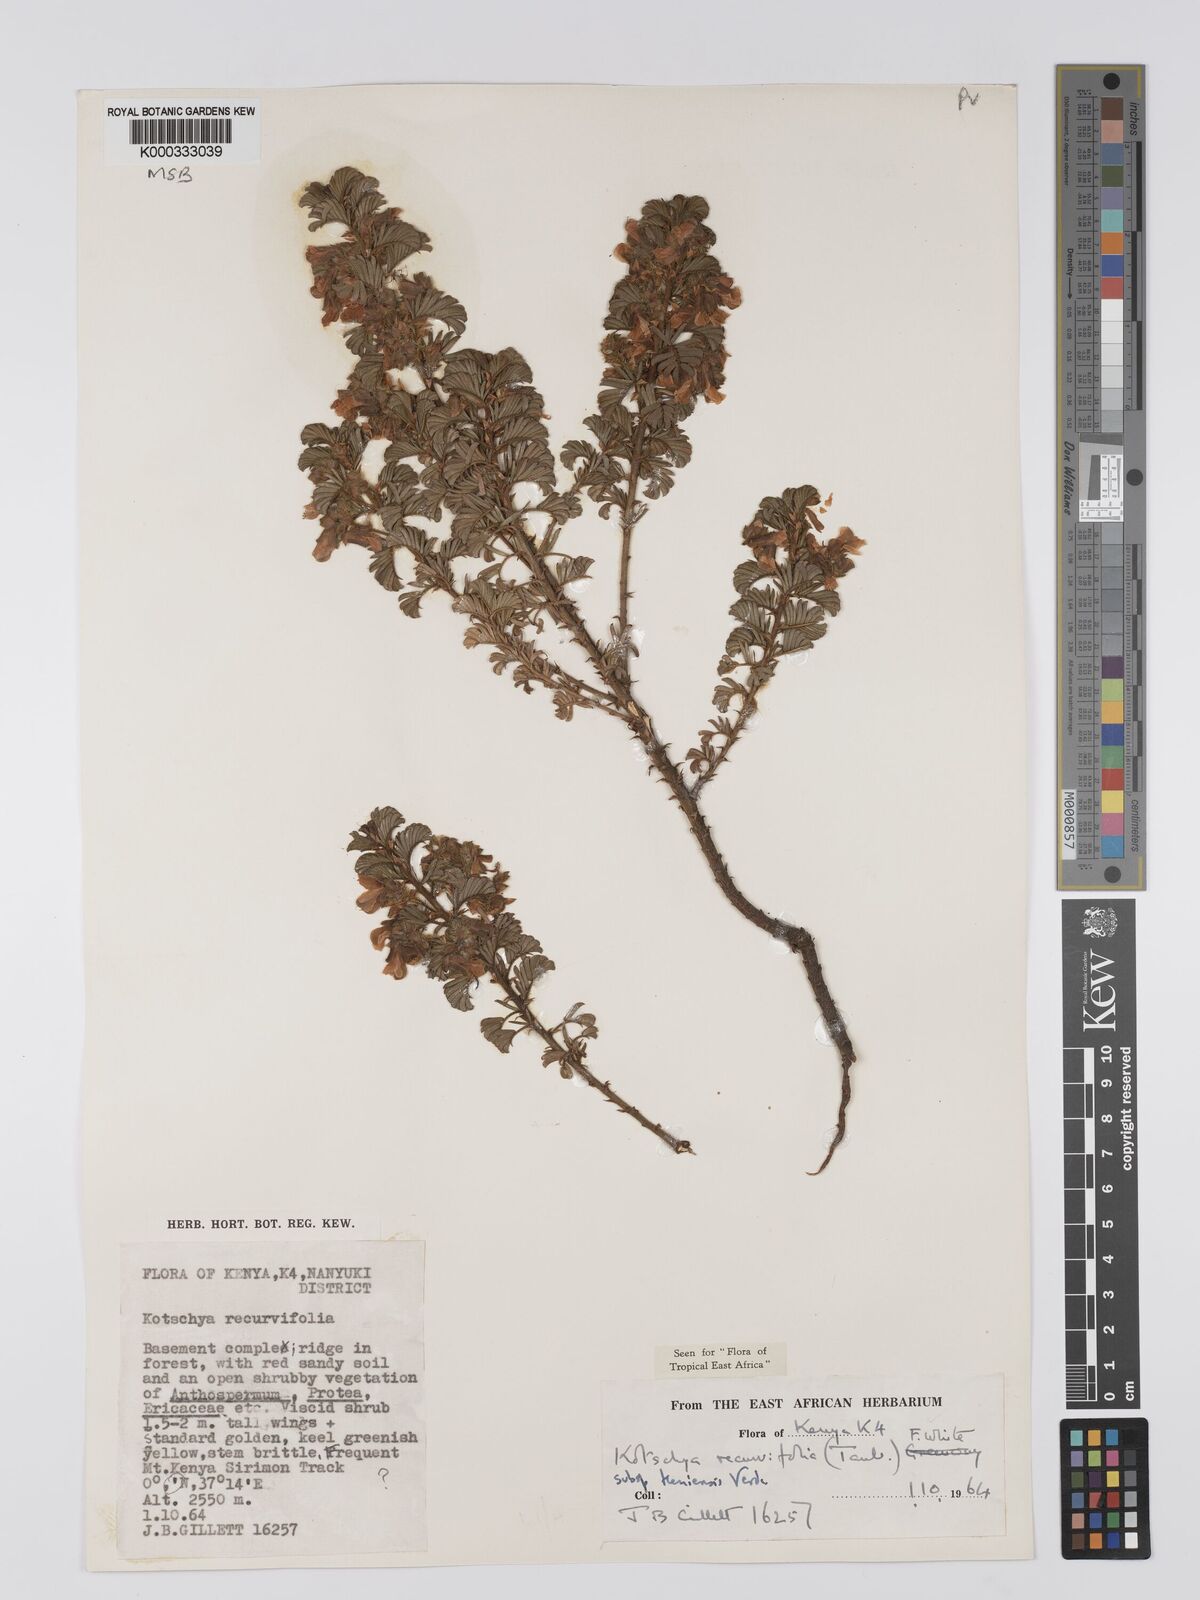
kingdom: Plantae
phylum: Tracheophyta
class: Magnoliopsida
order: Fabales
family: Fabaceae
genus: Kotschya
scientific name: Kotschya recurvifolia
